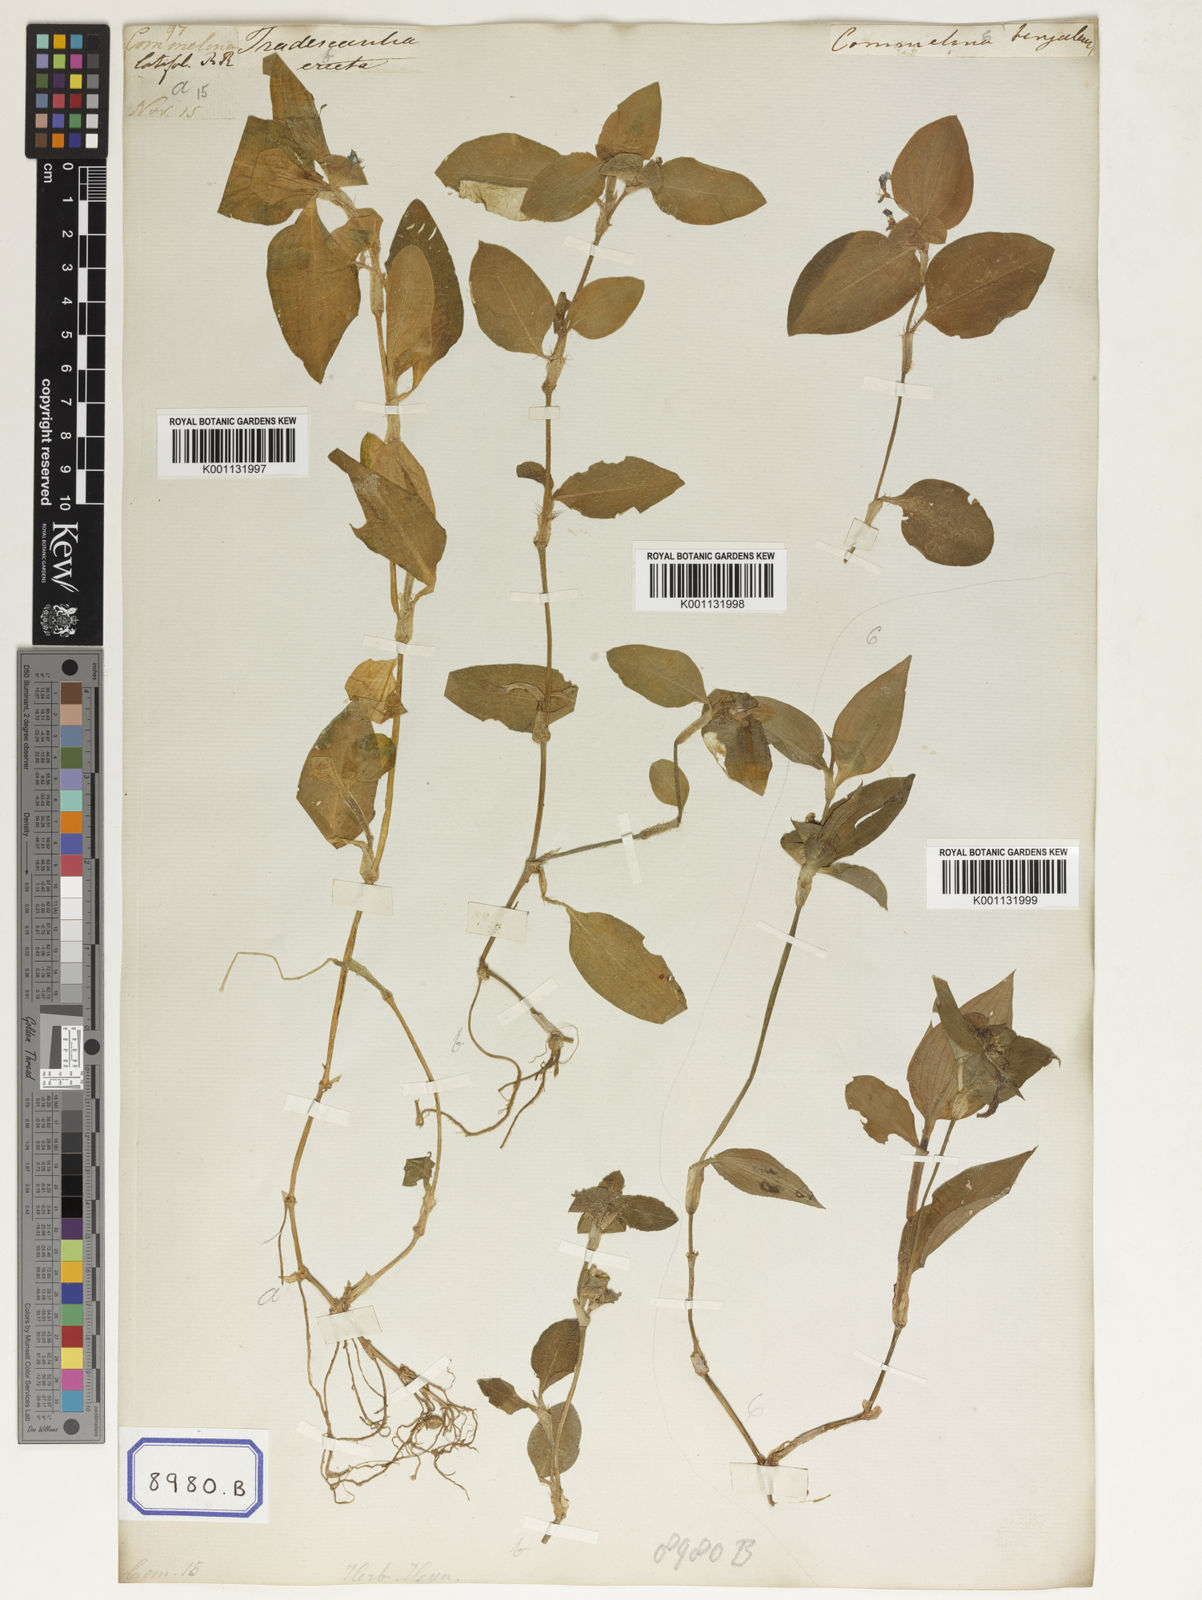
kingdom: Plantae
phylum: Tracheophyta
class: Liliopsida
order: Commelinales
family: Commelinaceae
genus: Commelina
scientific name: Commelina benghalensis
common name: Jio
